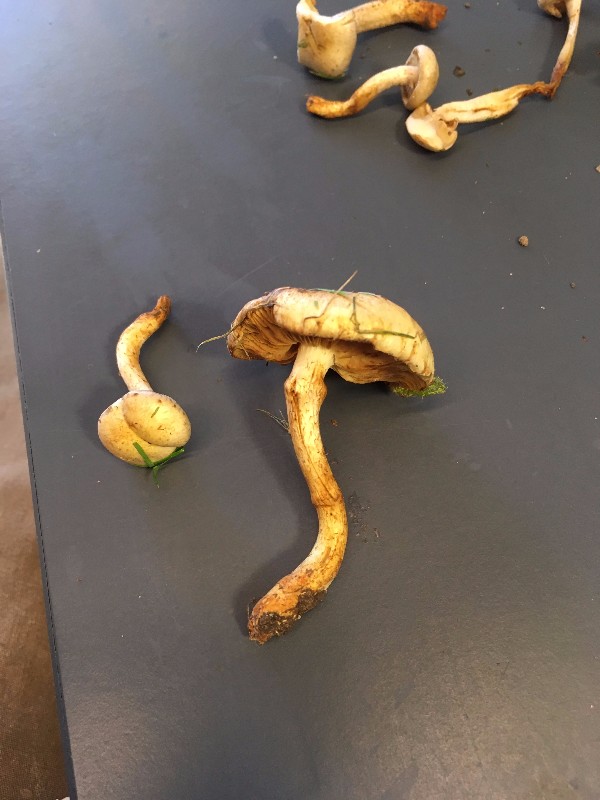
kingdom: Fungi
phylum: Basidiomycota
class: Agaricomycetes
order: Agaricales
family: Strophariaceae
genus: Pholiota
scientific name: Pholiota gummosa
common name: grøngul skælhat
